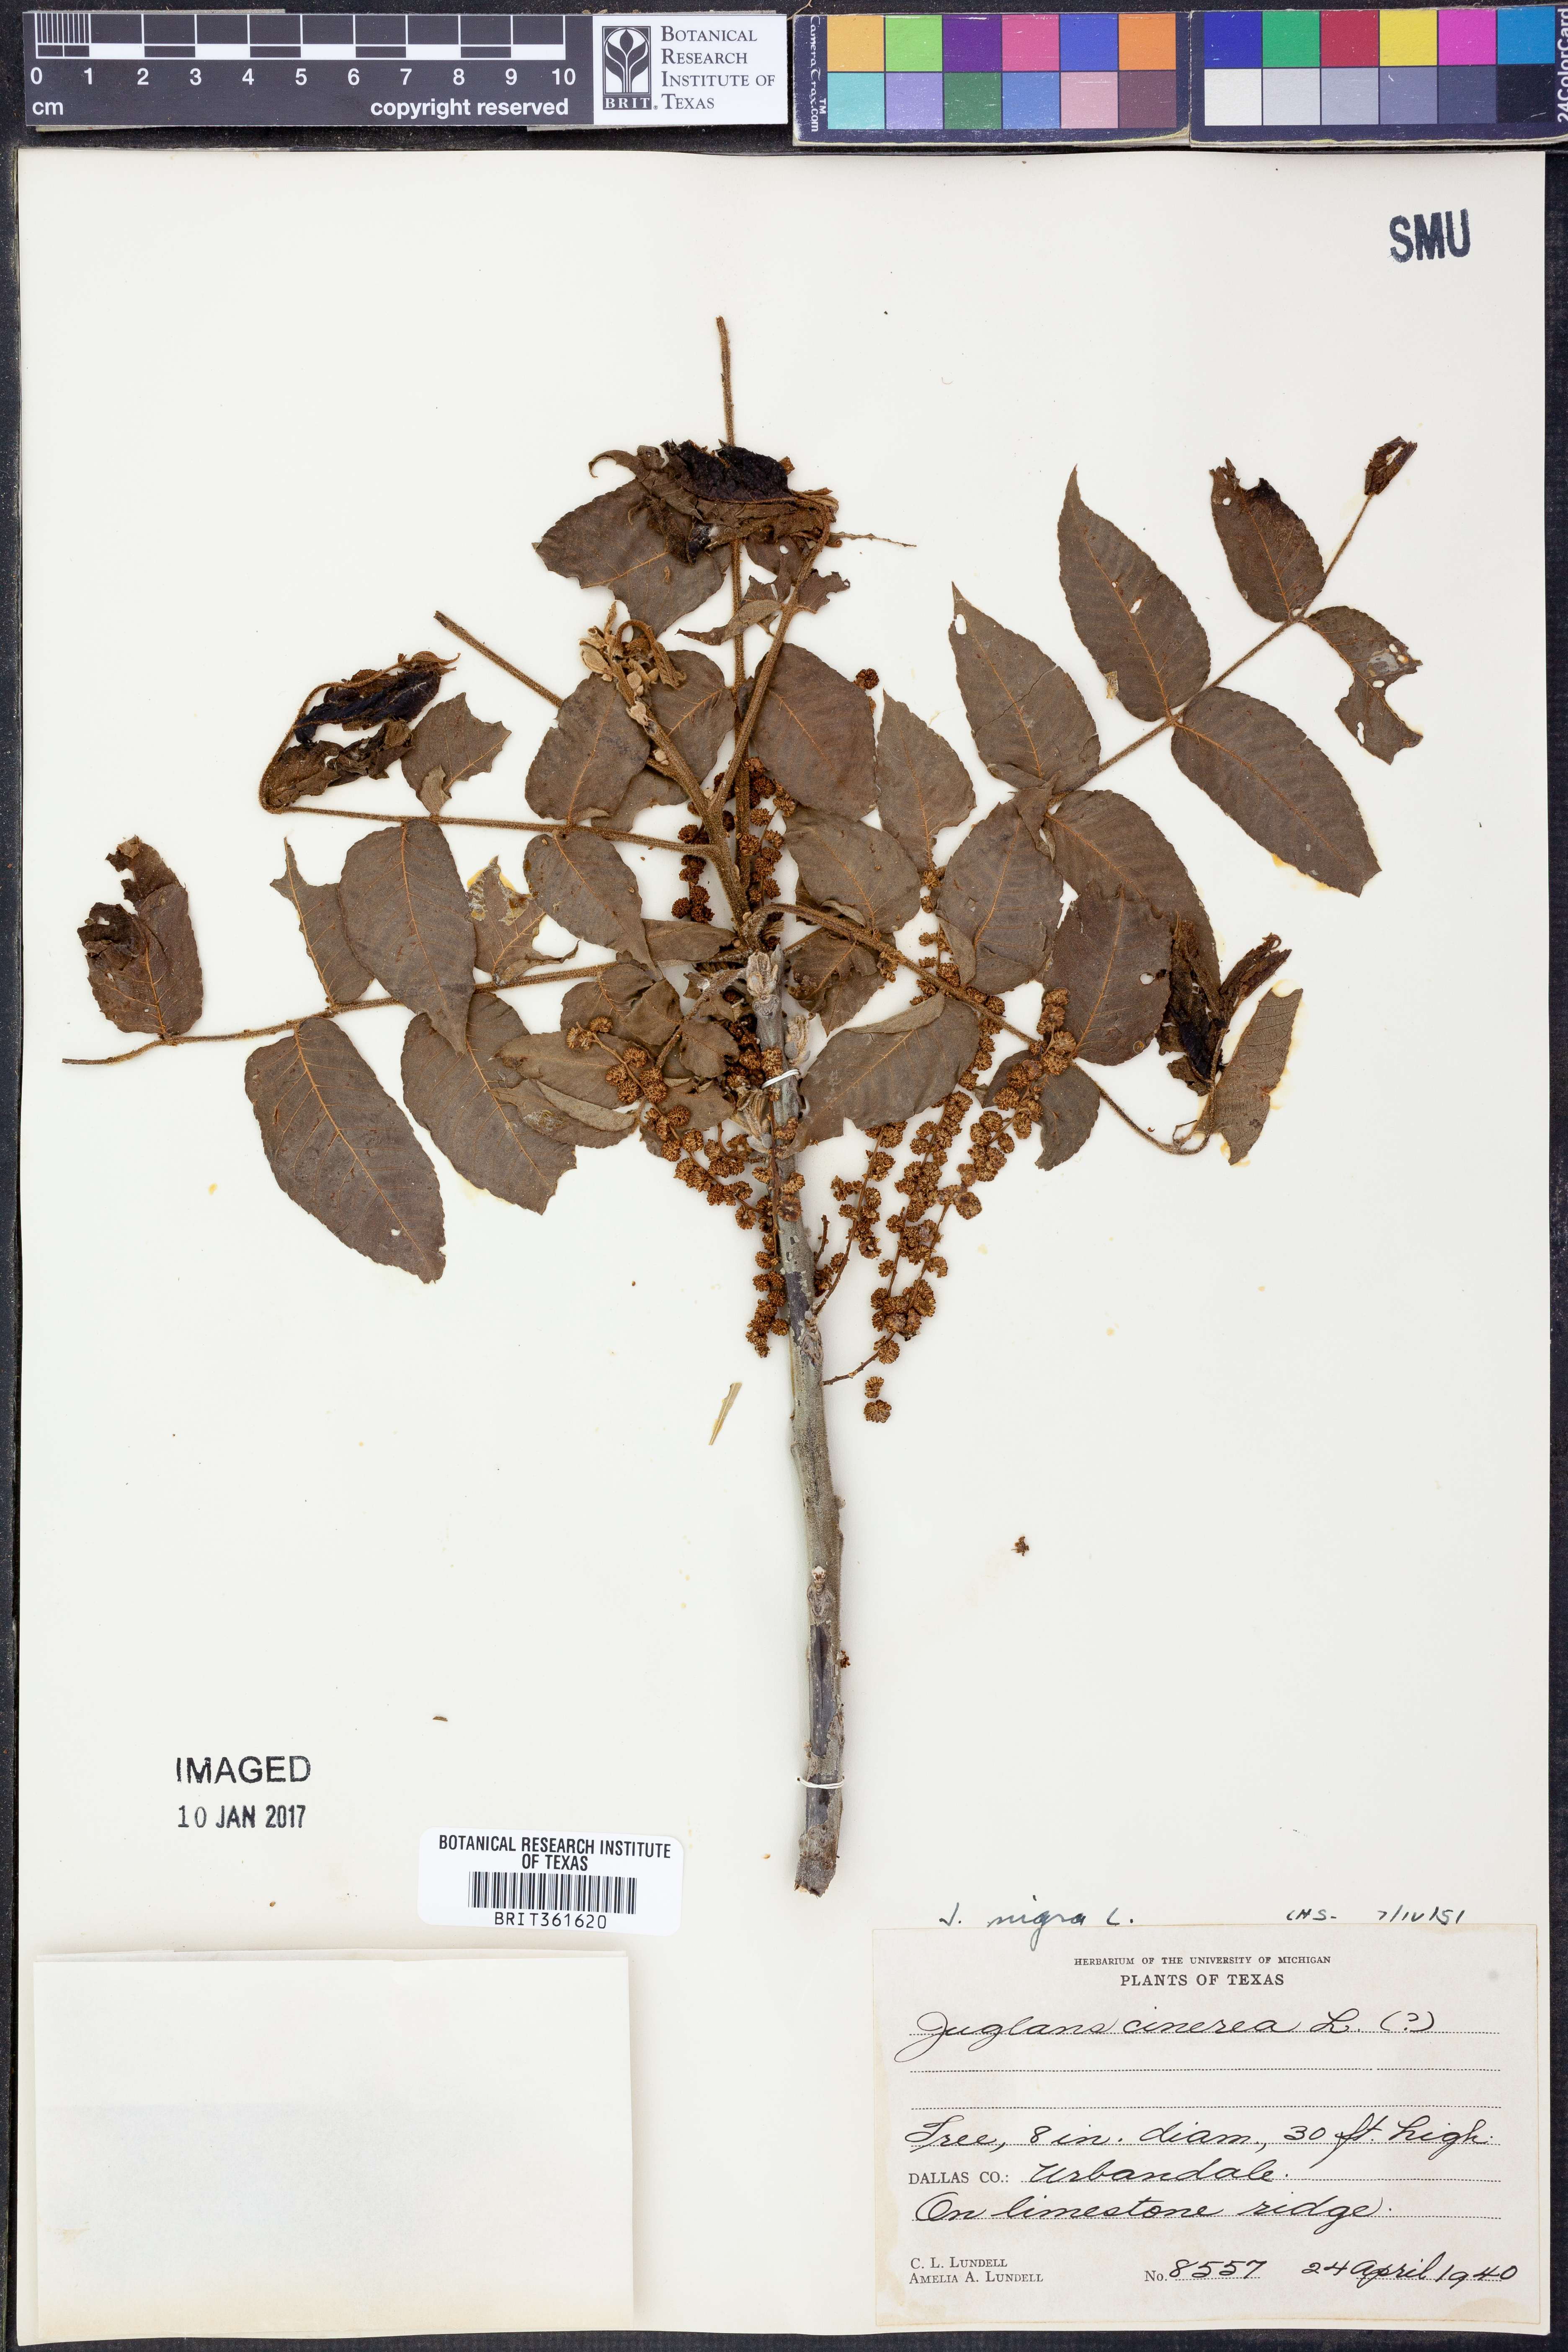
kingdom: Plantae
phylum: Tracheophyta
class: Magnoliopsida
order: Fagales
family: Juglandaceae
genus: Juglans
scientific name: Juglans nigra
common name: Black walnut
